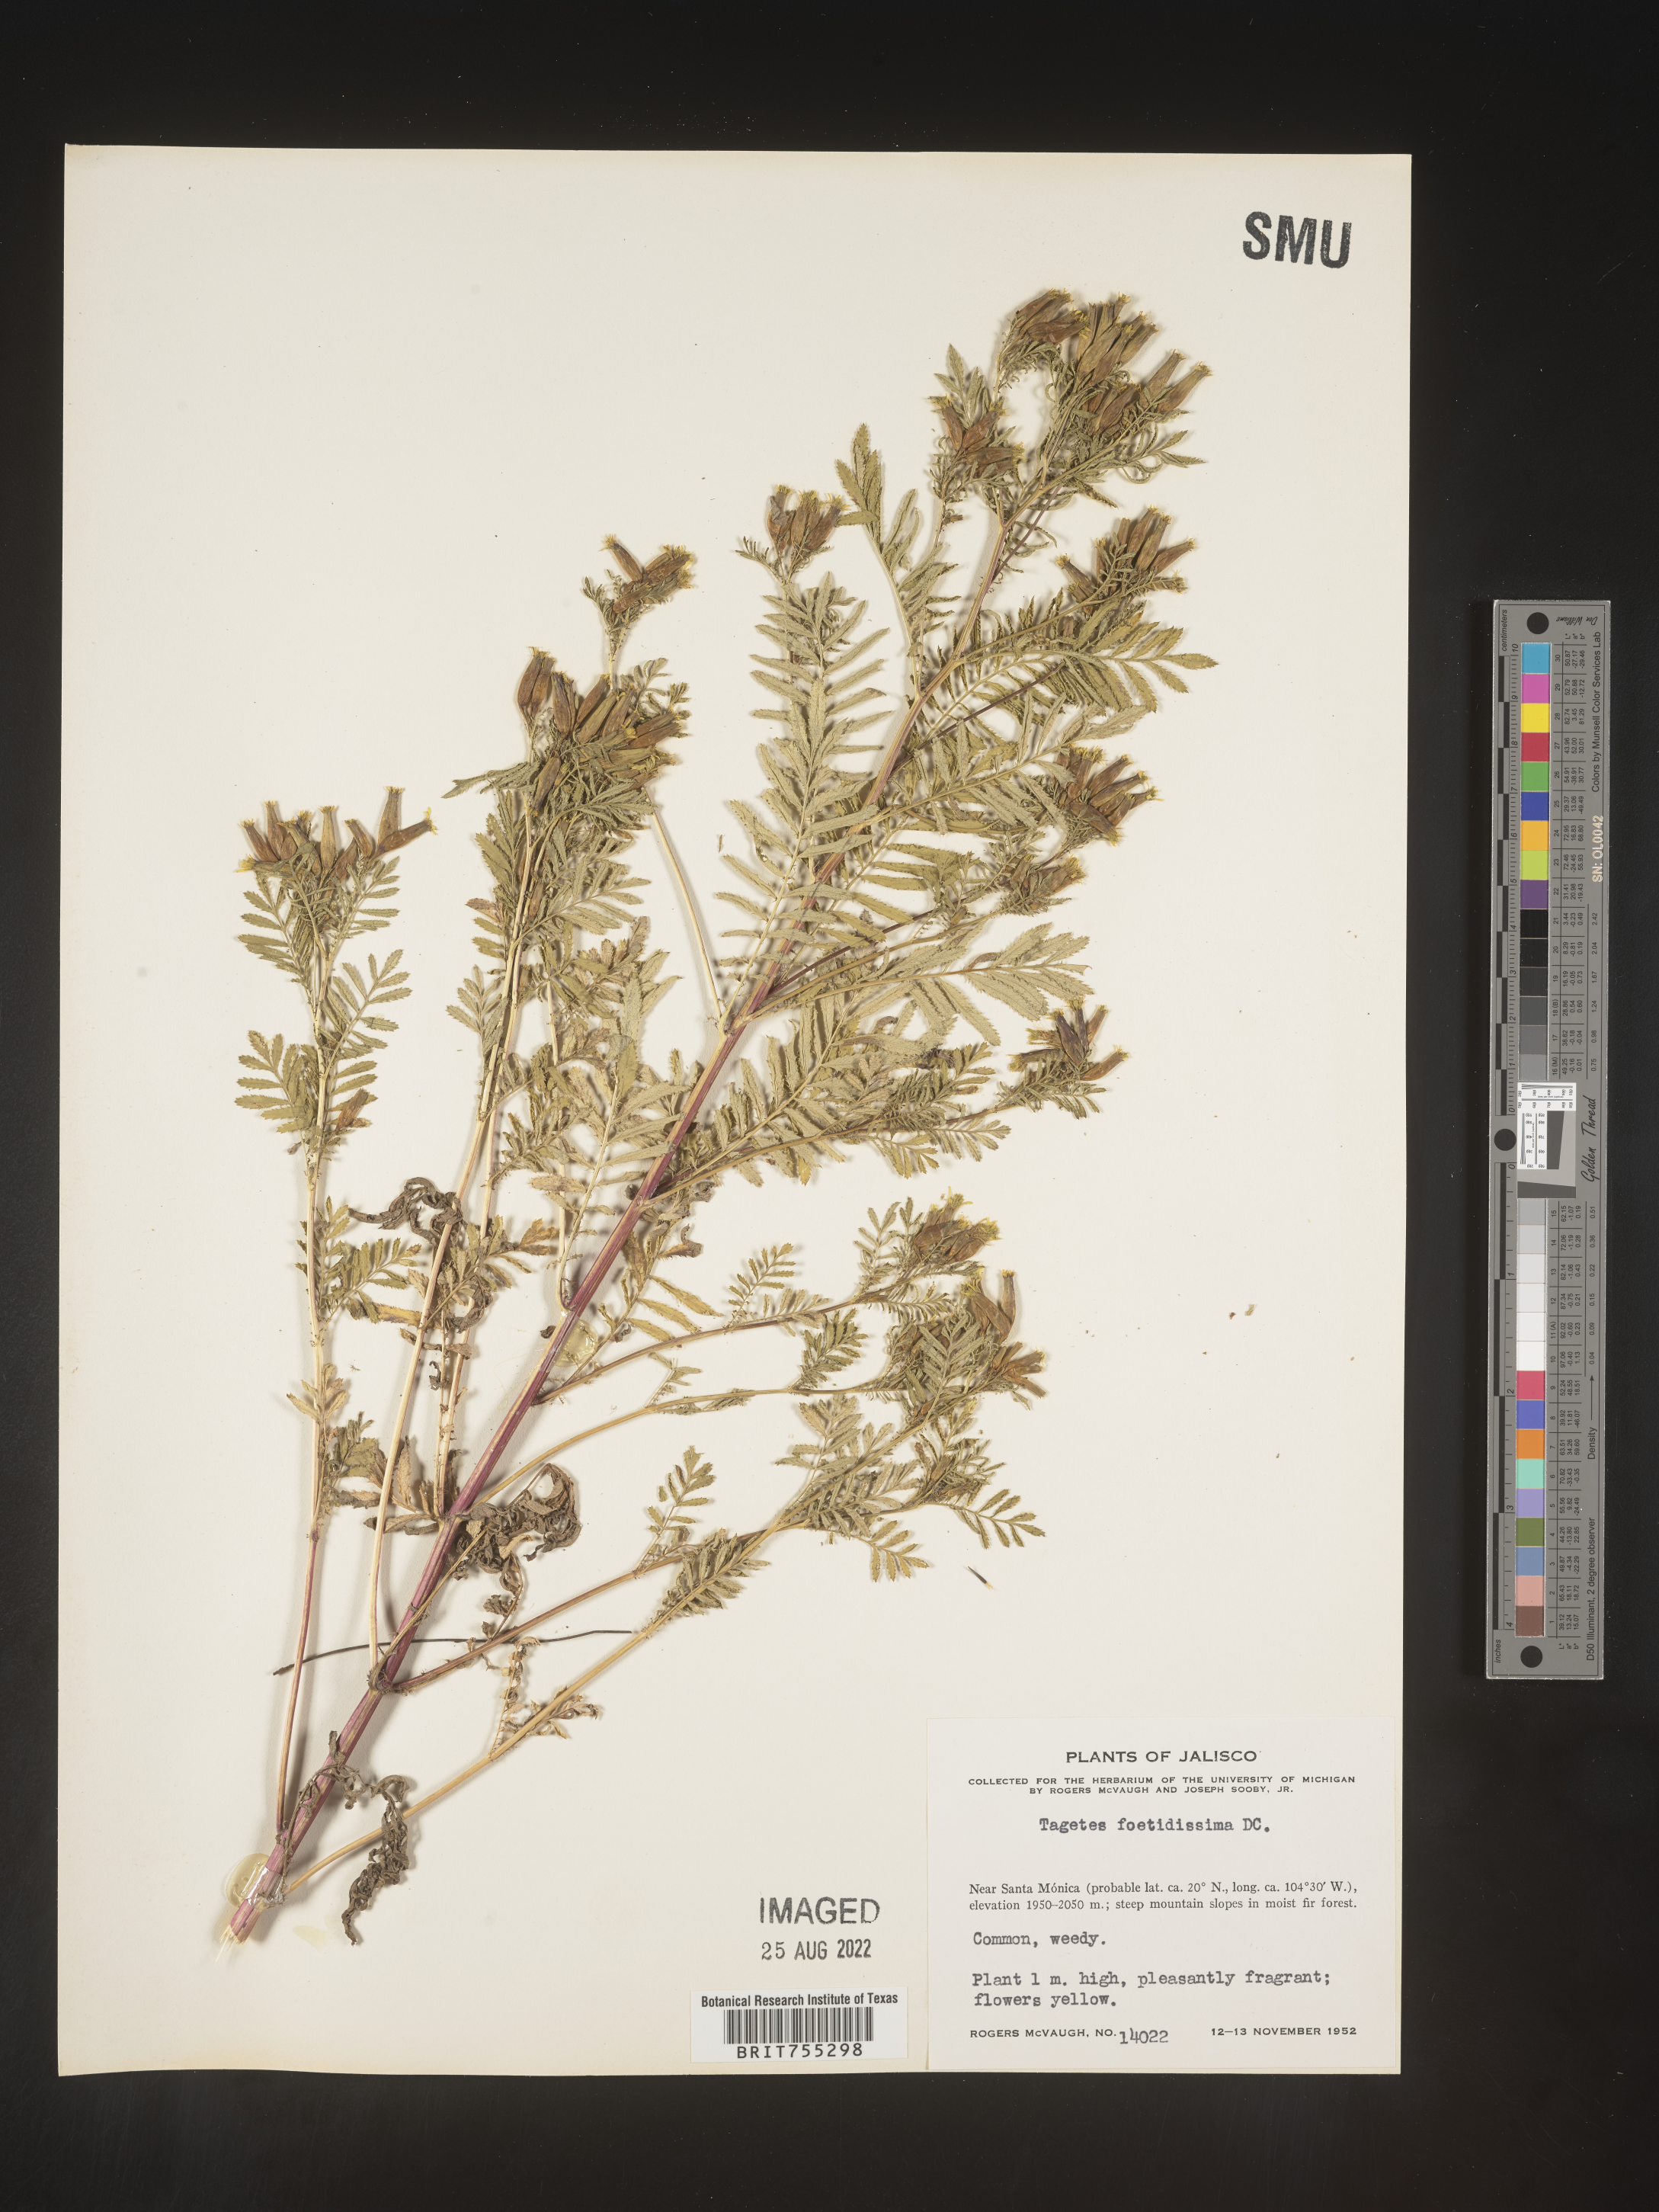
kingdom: Plantae
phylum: Tracheophyta
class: Magnoliopsida
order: Asterales
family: Asteraceae
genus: Tagetes
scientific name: Tagetes
